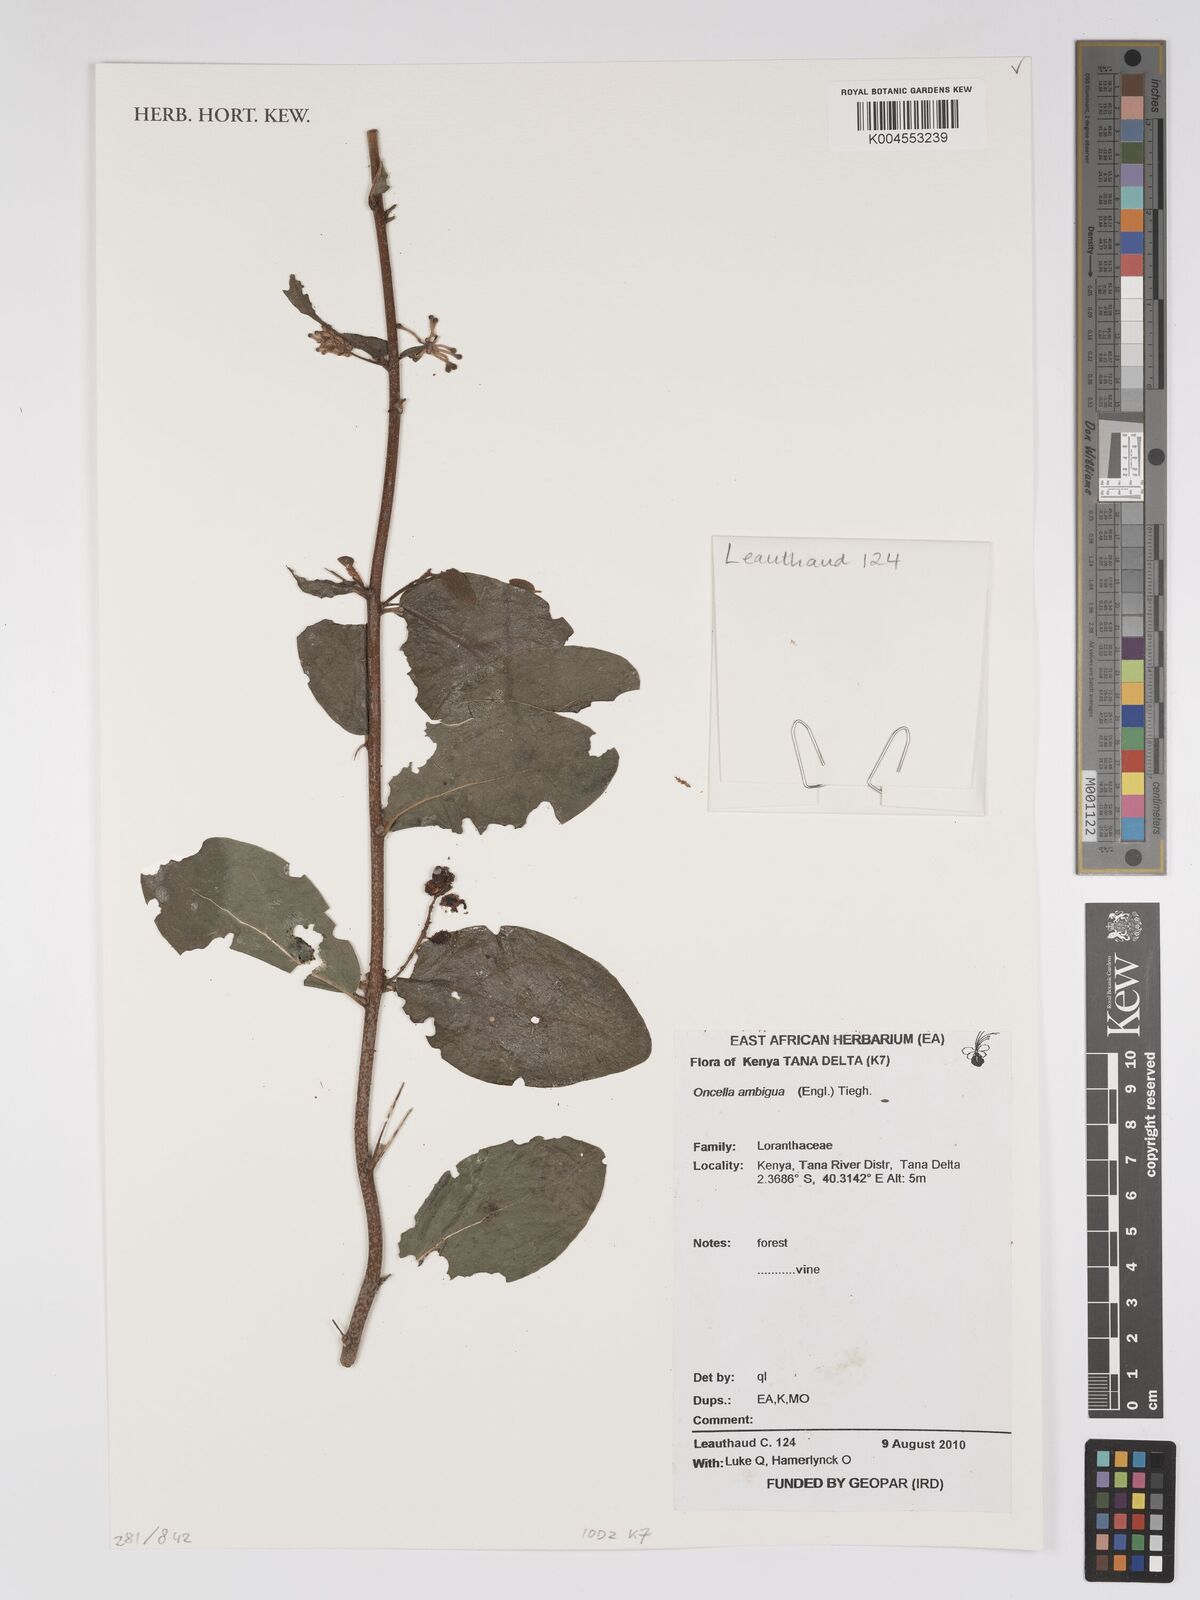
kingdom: Plantae
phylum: Tracheophyta
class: Magnoliopsida
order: Santalales
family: Loranthaceae
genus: Oncella
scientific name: Oncella ambigua
